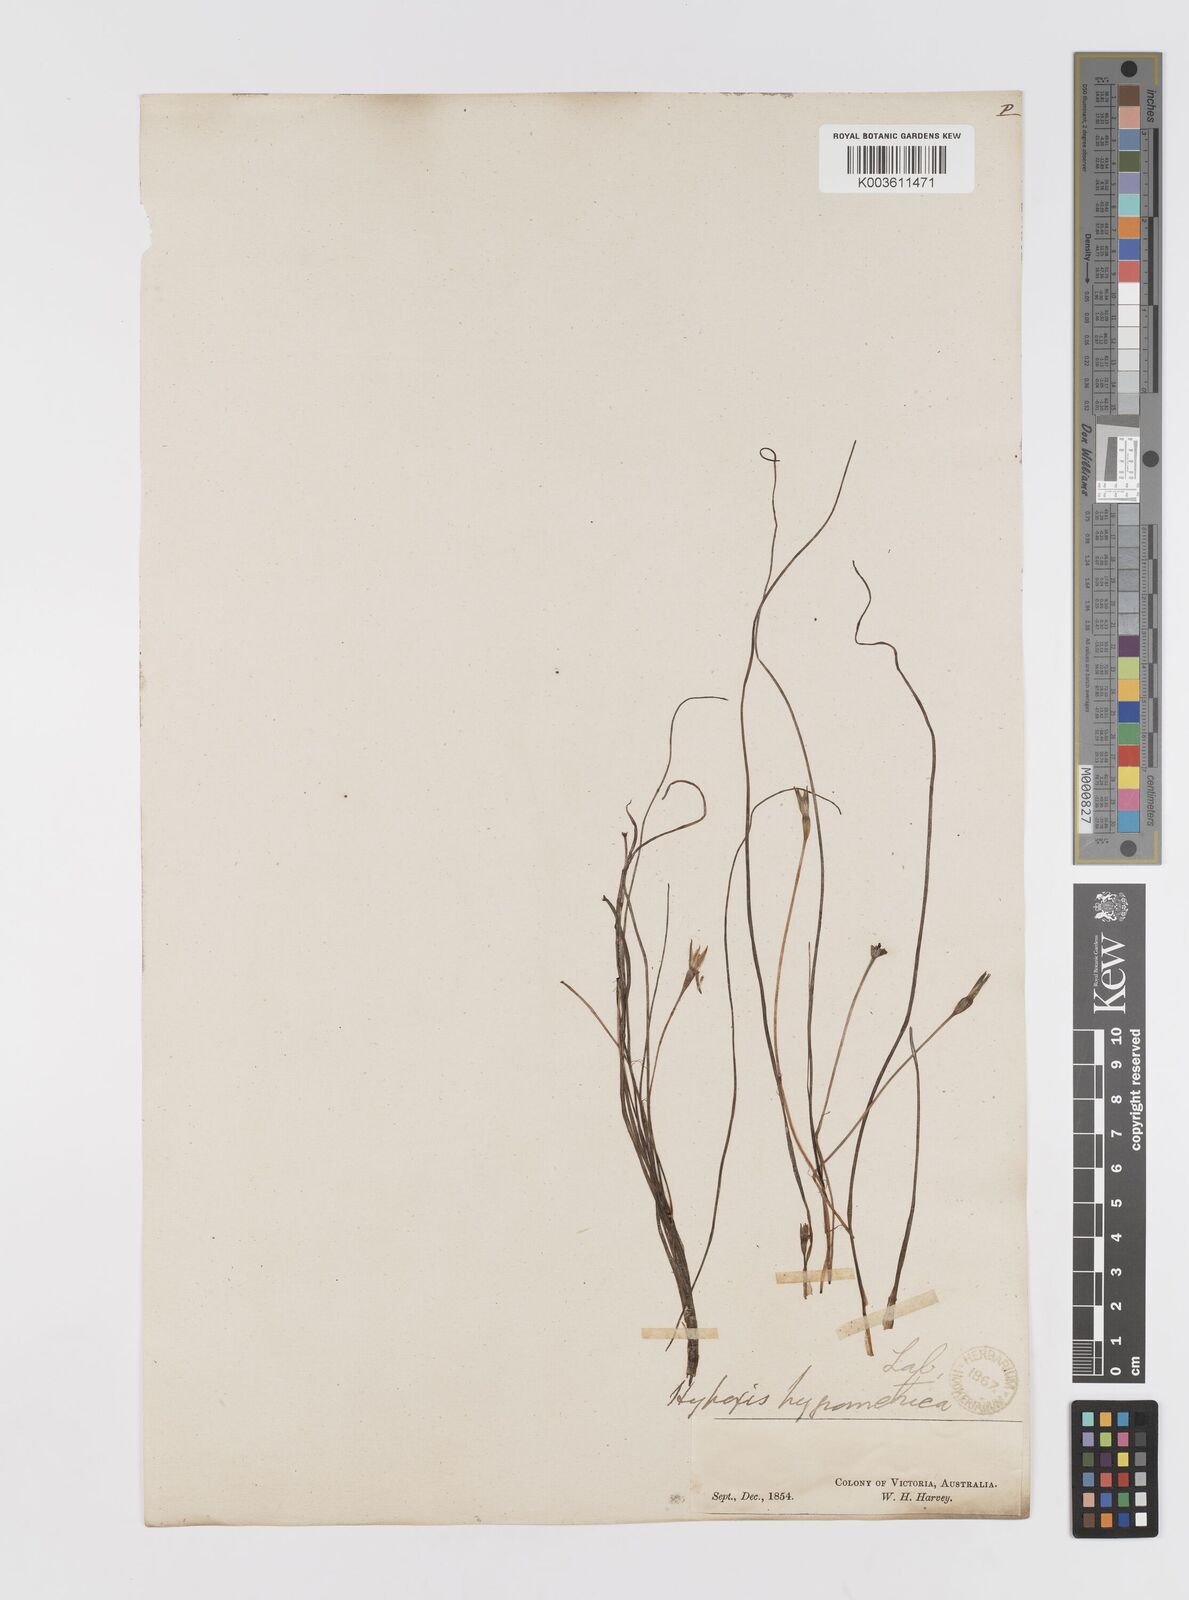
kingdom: Plantae
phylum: Tracheophyta
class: Liliopsida
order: Asparagales
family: Hypoxidaceae
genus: Hypoxis
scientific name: Hypoxis hygrometrica
